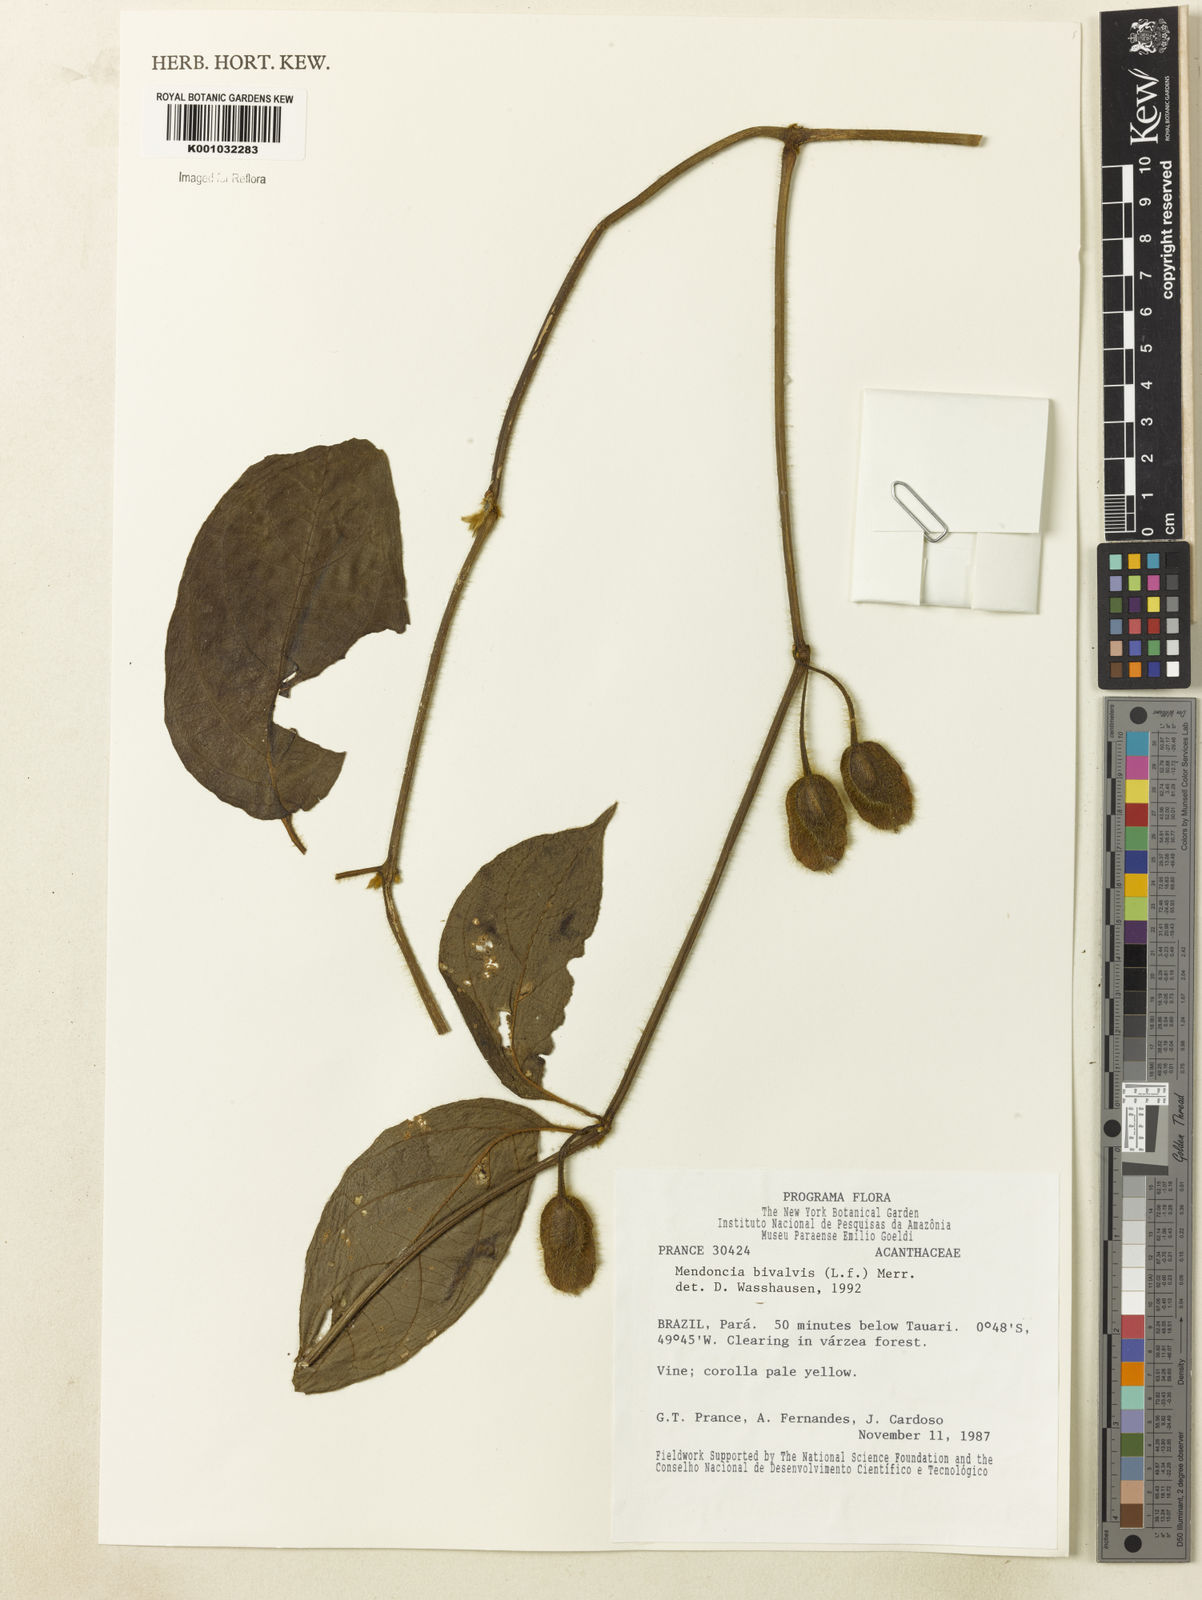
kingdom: Plantae
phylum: Tracheophyta
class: Magnoliopsida
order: Lamiales
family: Acanthaceae
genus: Mendoncia
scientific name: Mendoncia bivalvis
